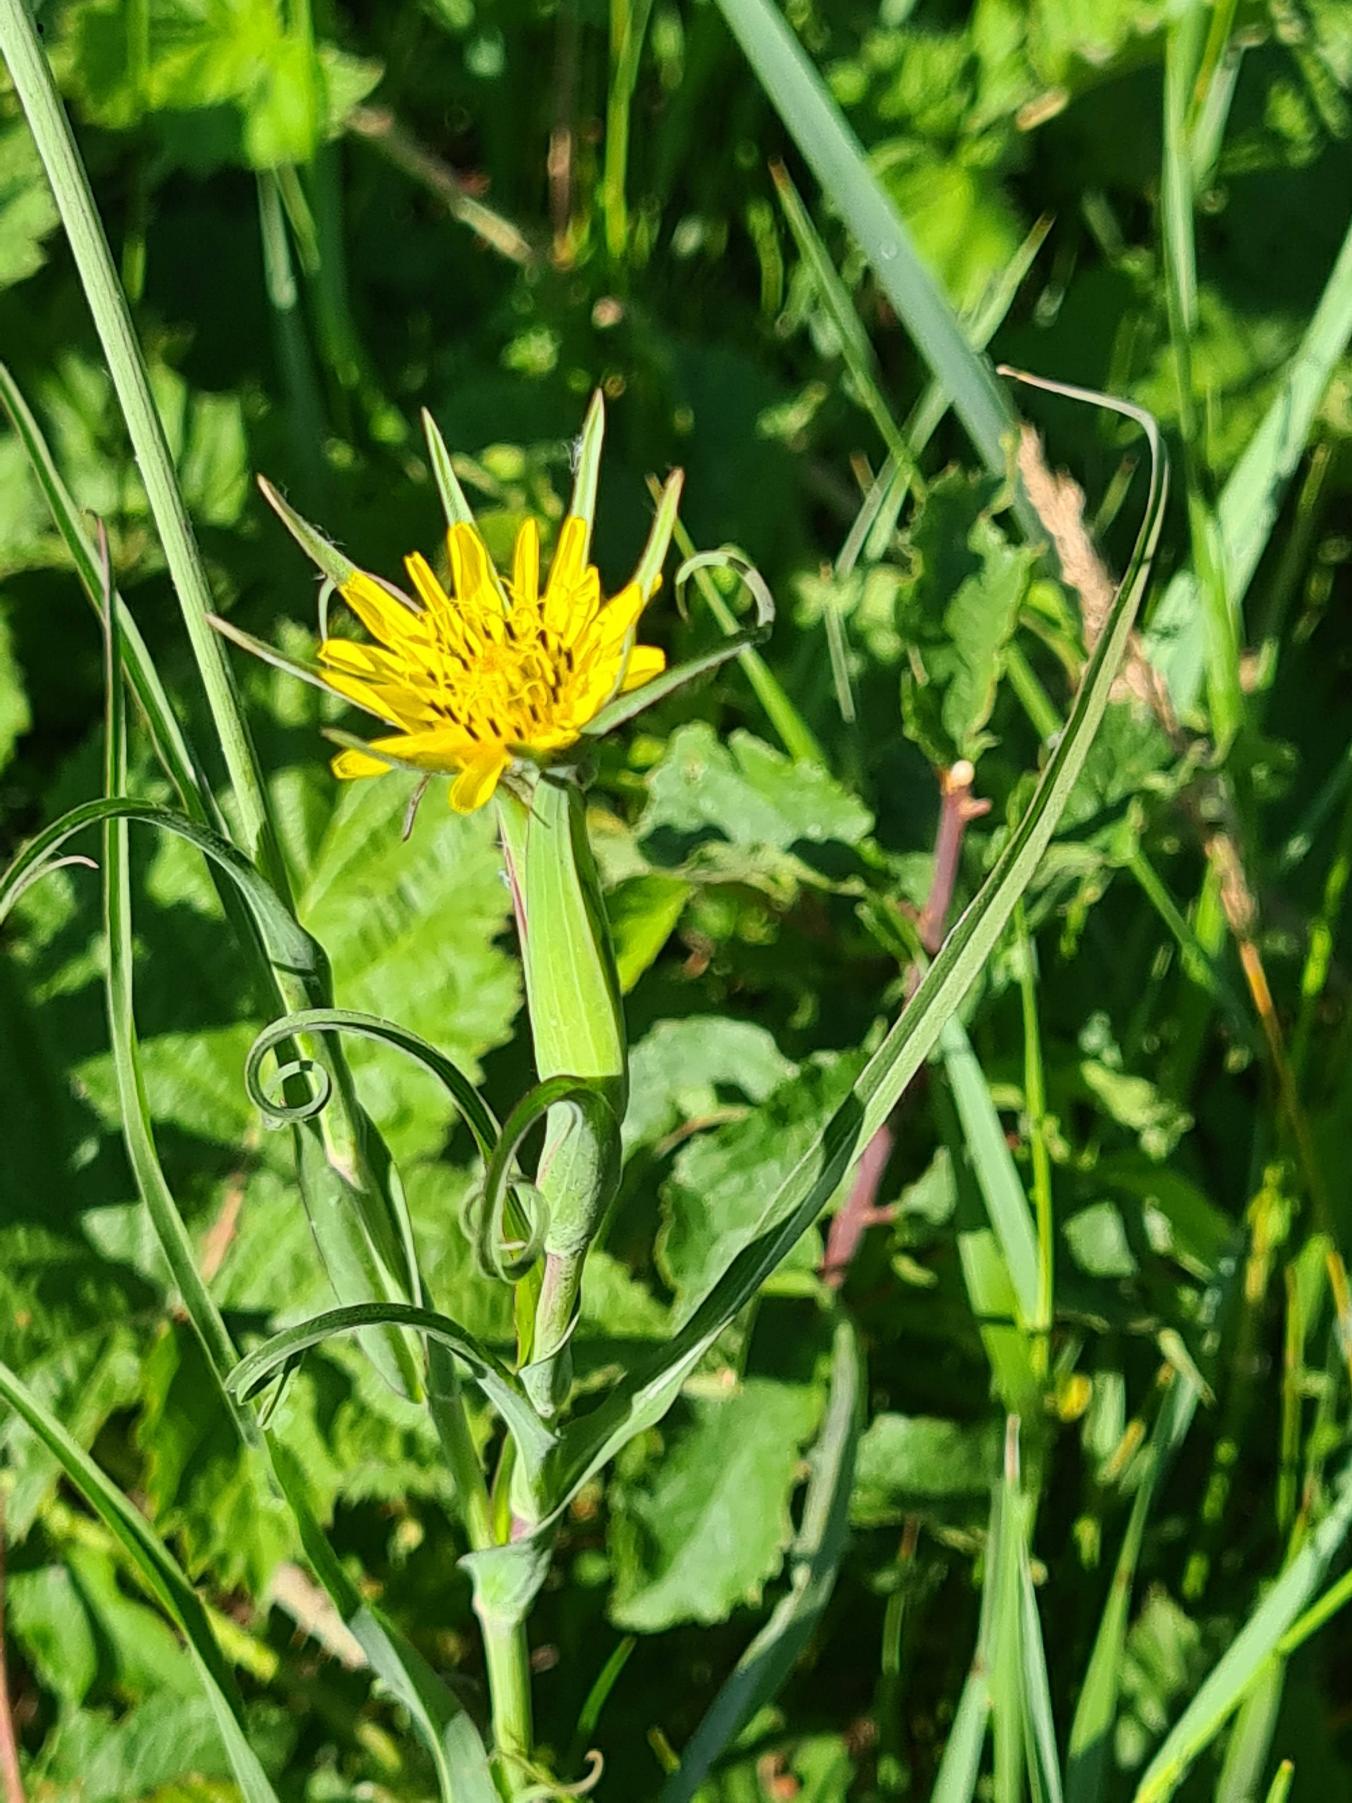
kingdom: Plantae
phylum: Tracheophyta
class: Magnoliopsida
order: Asterales
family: Asteraceae
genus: Tragopogon
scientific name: Tragopogon minor
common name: Småkronet gedeskæg
